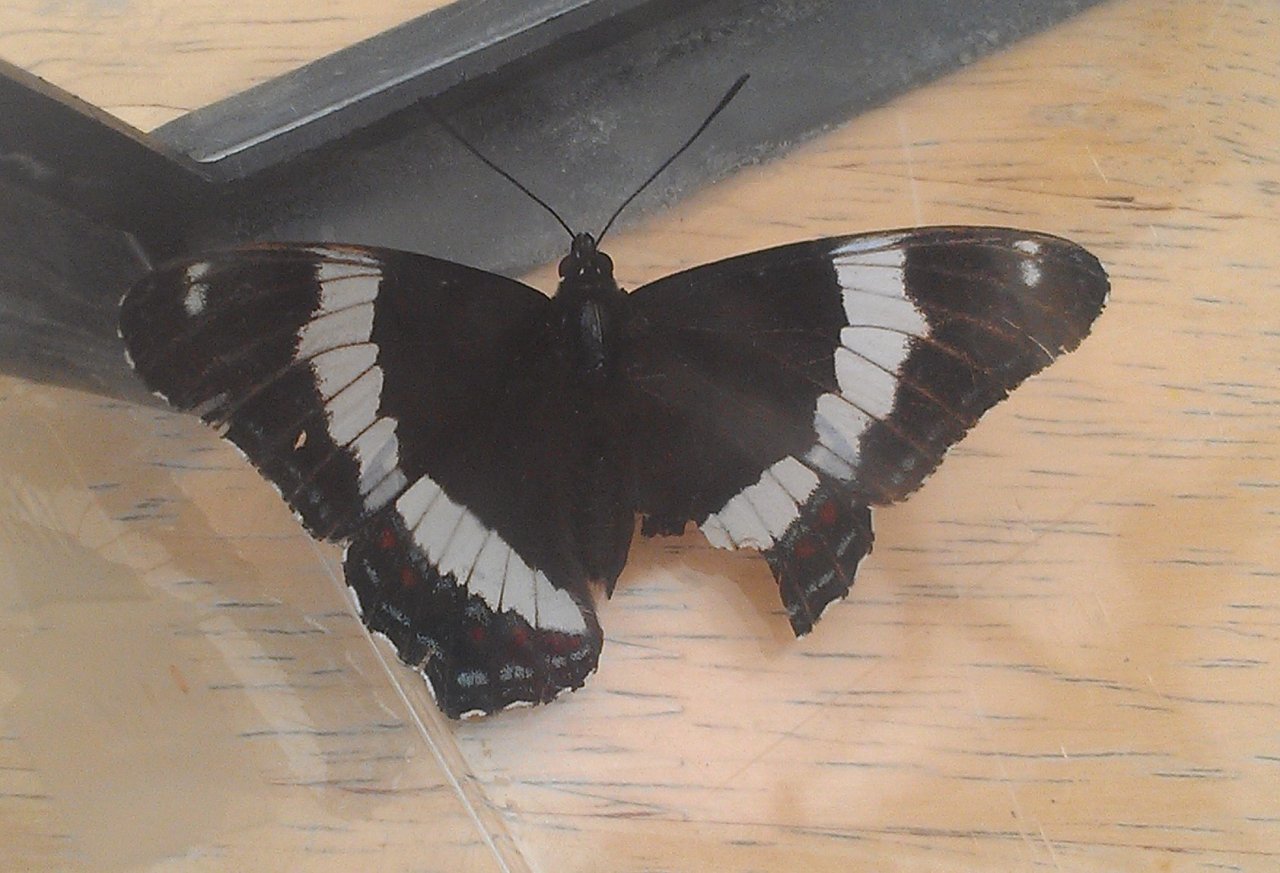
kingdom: Animalia
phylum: Arthropoda
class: Insecta
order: Lepidoptera
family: Nymphalidae
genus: Limenitis
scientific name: Limenitis arthemis
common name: Red-spotted Admiral
